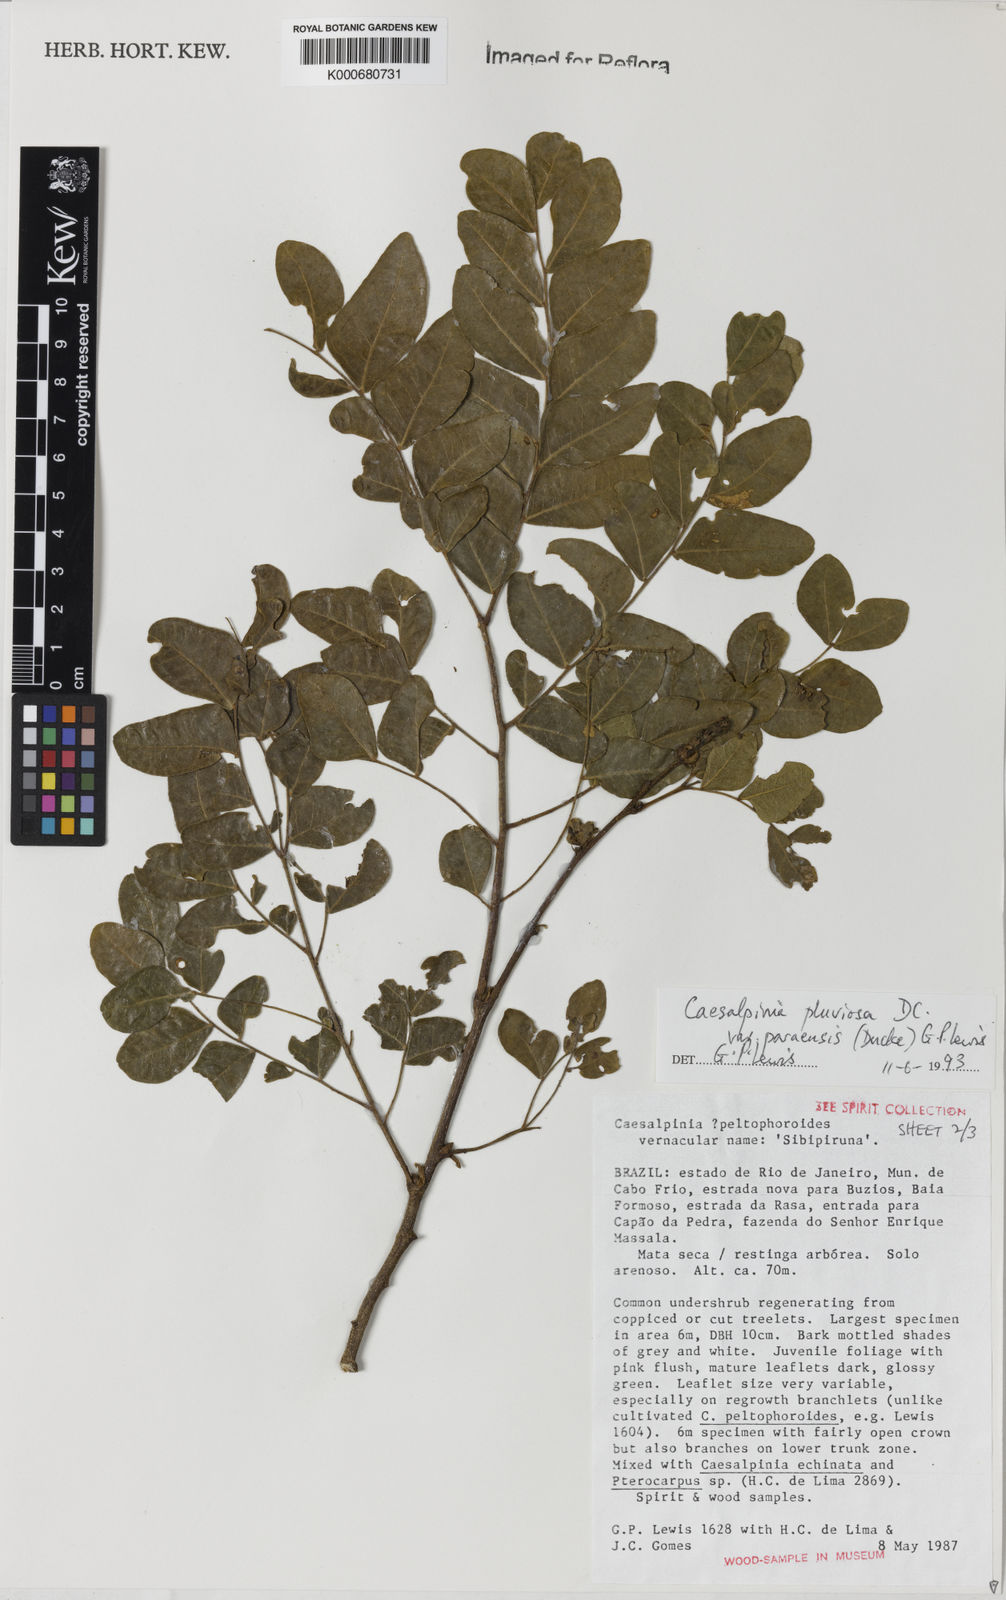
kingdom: Plantae
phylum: Tracheophyta
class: Magnoliopsida
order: Fabales
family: Fabaceae
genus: Cenostigma
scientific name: Cenostigma pluviosum
